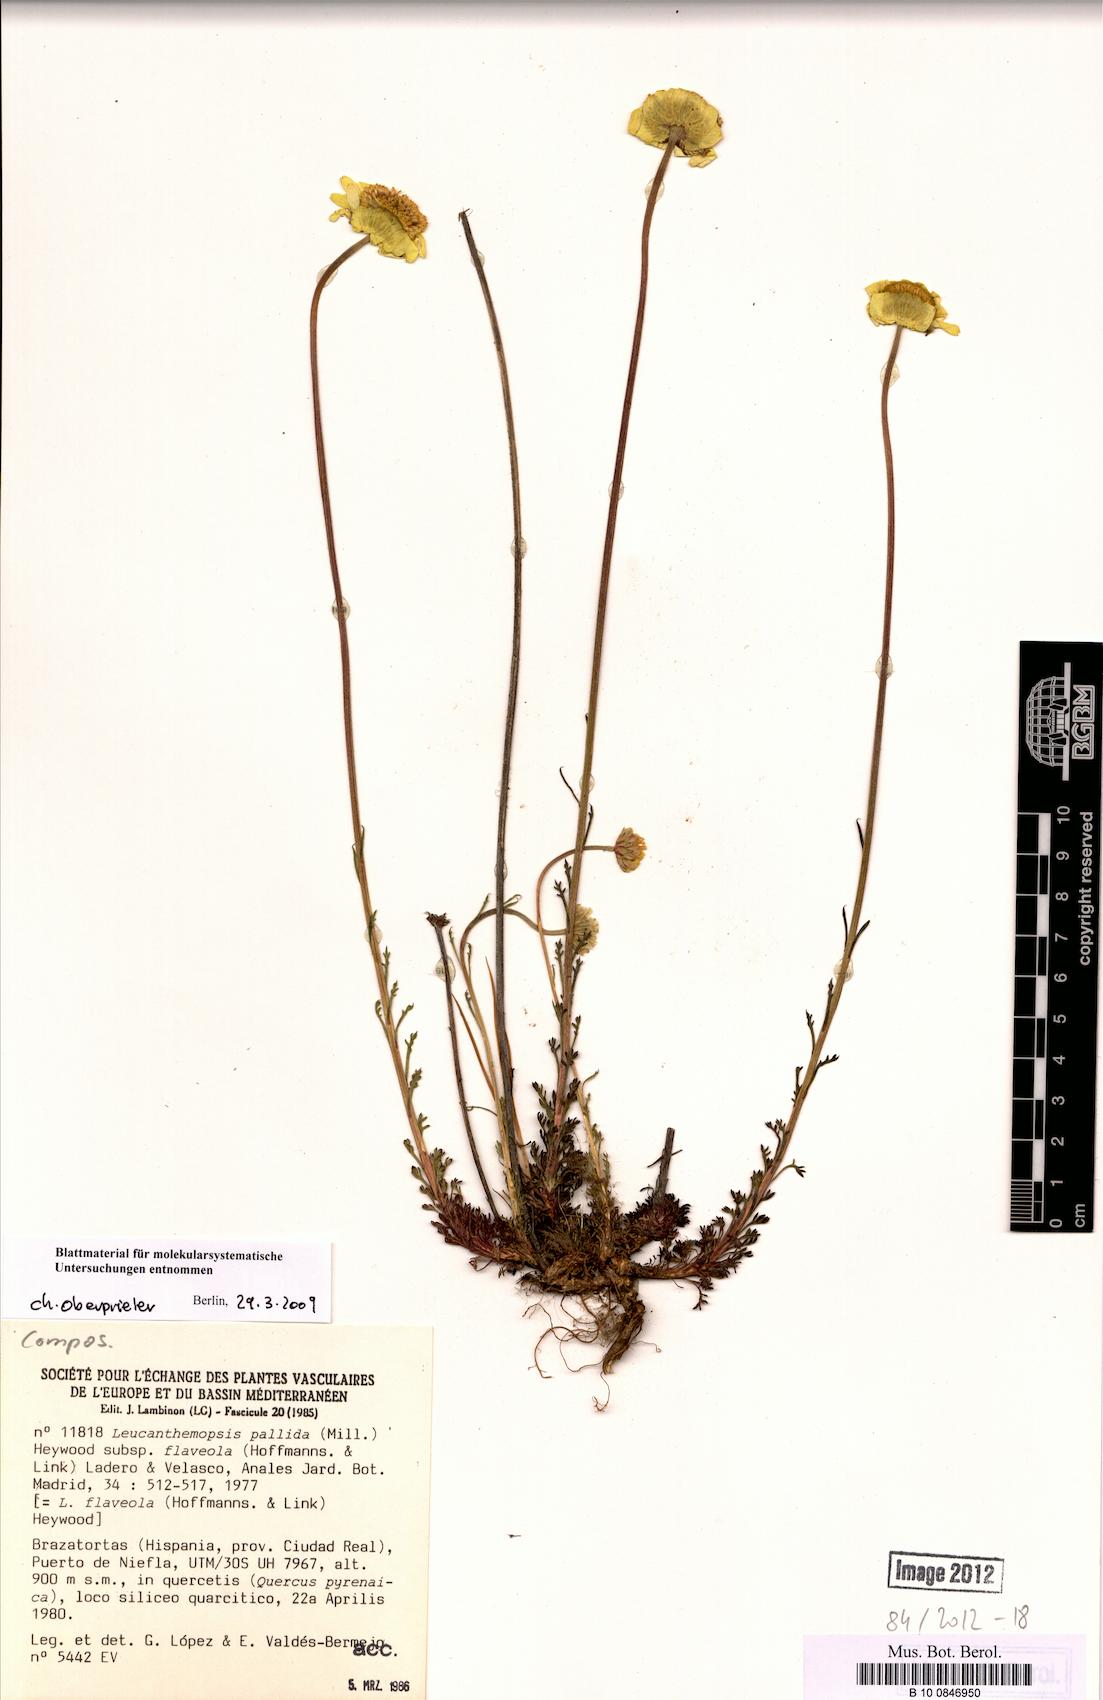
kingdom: Plantae
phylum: Tracheophyta
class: Magnoliopsida
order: Asterales
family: Asteraceae
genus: Leucanthemopsis
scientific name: Leucanthemopsis flaveola
